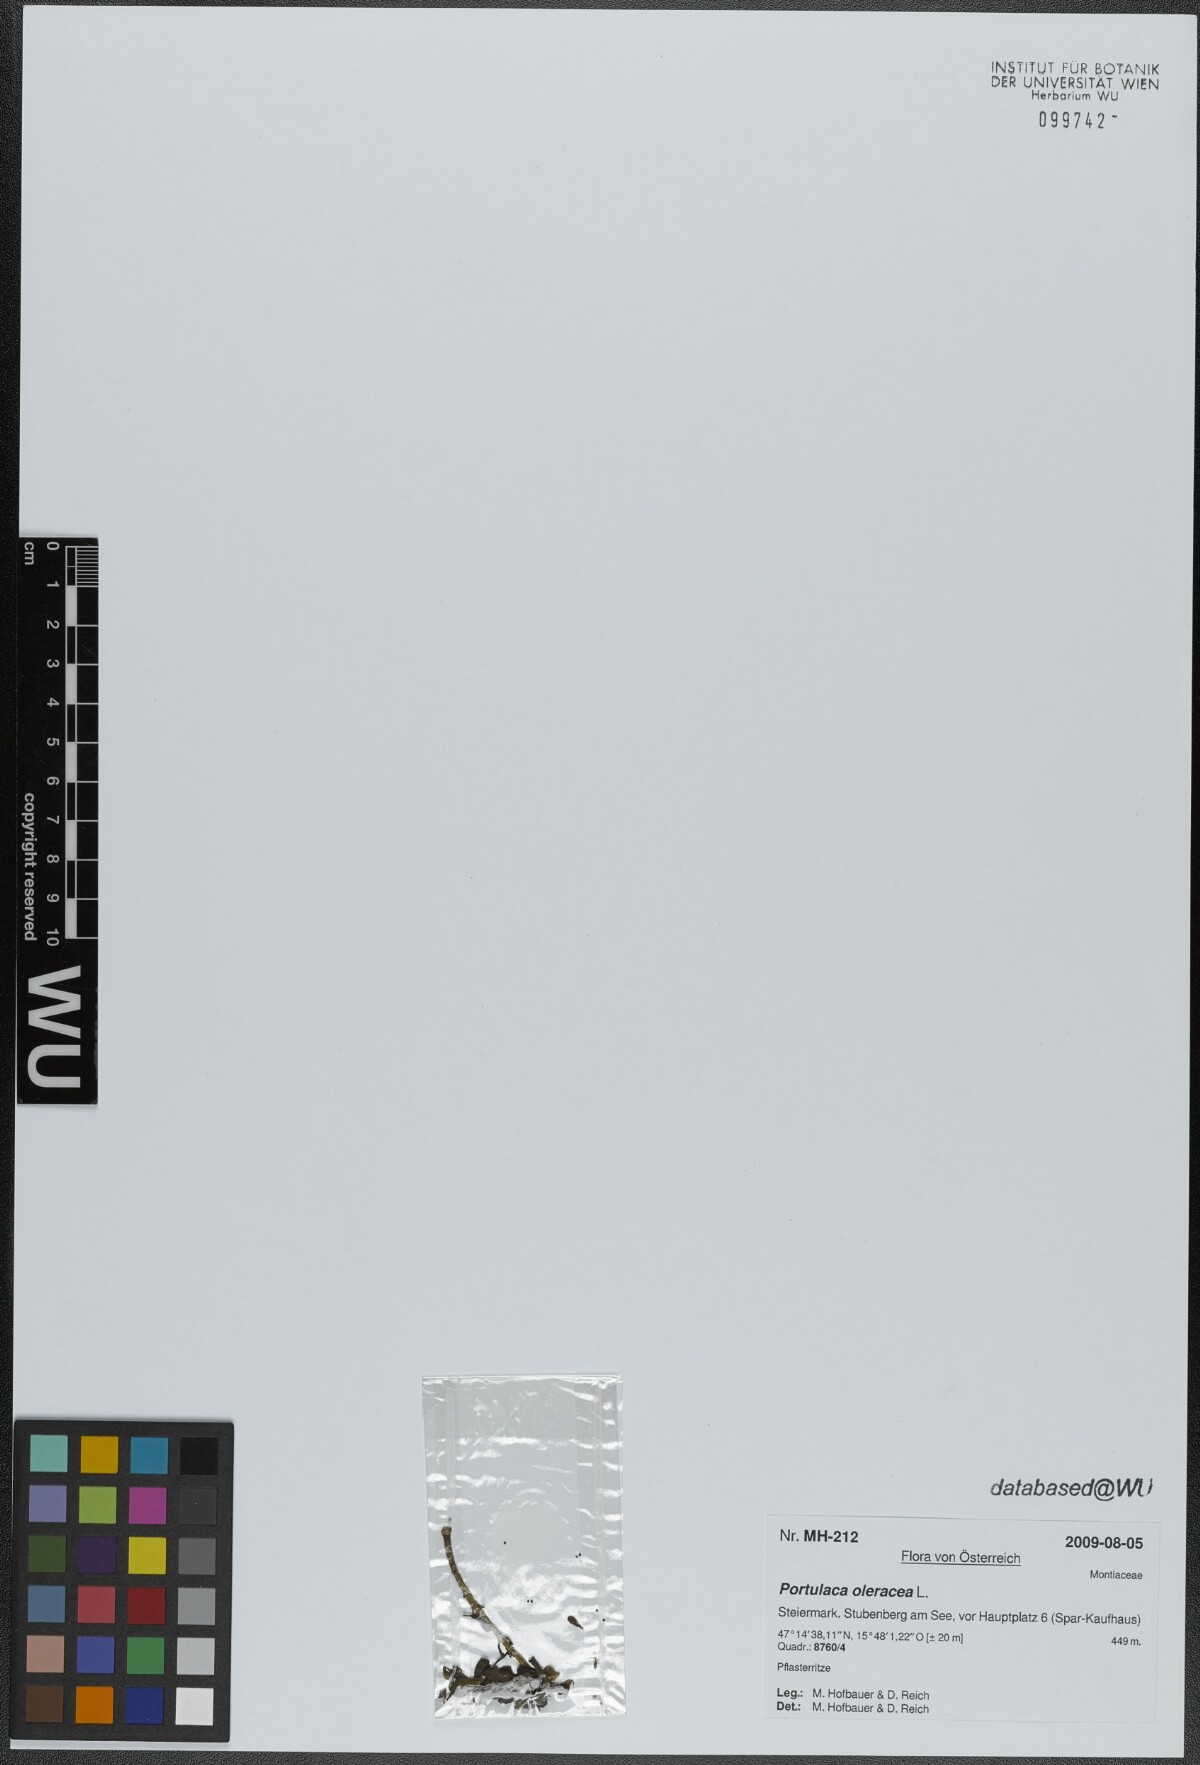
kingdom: Plantae
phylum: Tracheophyta
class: Magnoliopsida
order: Caryophyllales
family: Portulacaceae
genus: Portulaca
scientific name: Portulaca oleracea
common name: Common purslane
